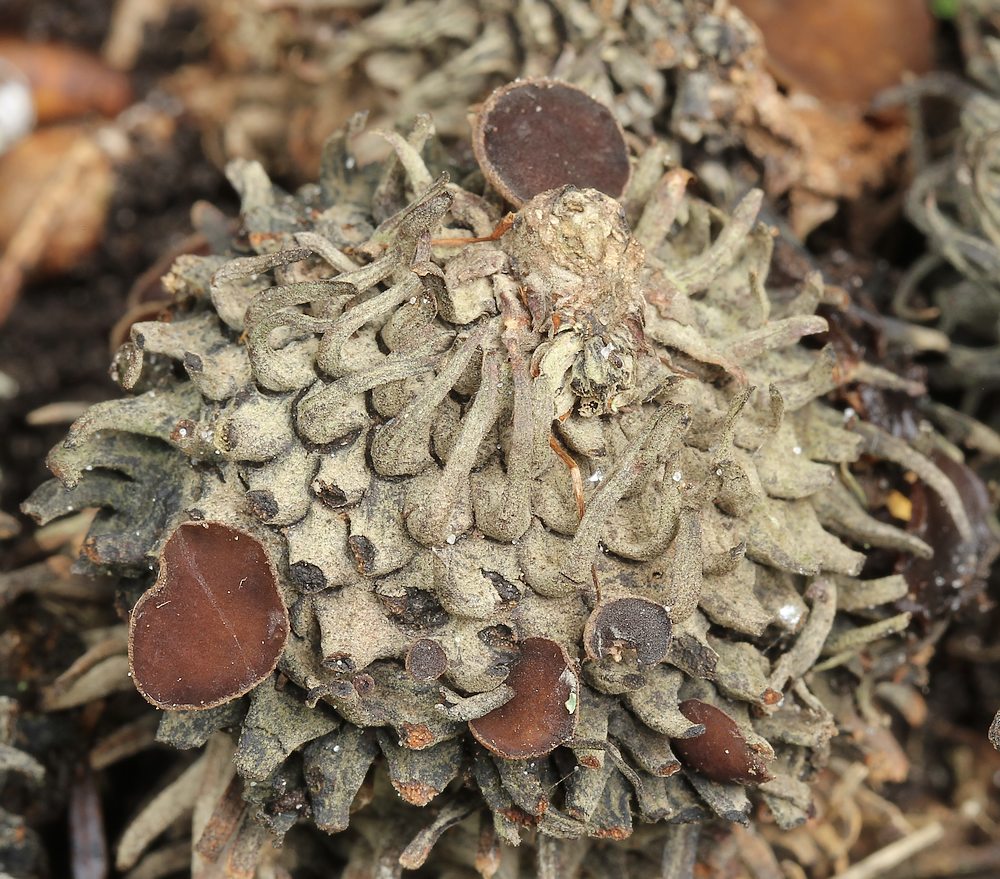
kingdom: Fungi
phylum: Ascomycota
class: Leotiomycetes
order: Helotiales
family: Rutstroemiaceae
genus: Lanzia
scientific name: Lanzia echinophila
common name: kastanie-brunskive
